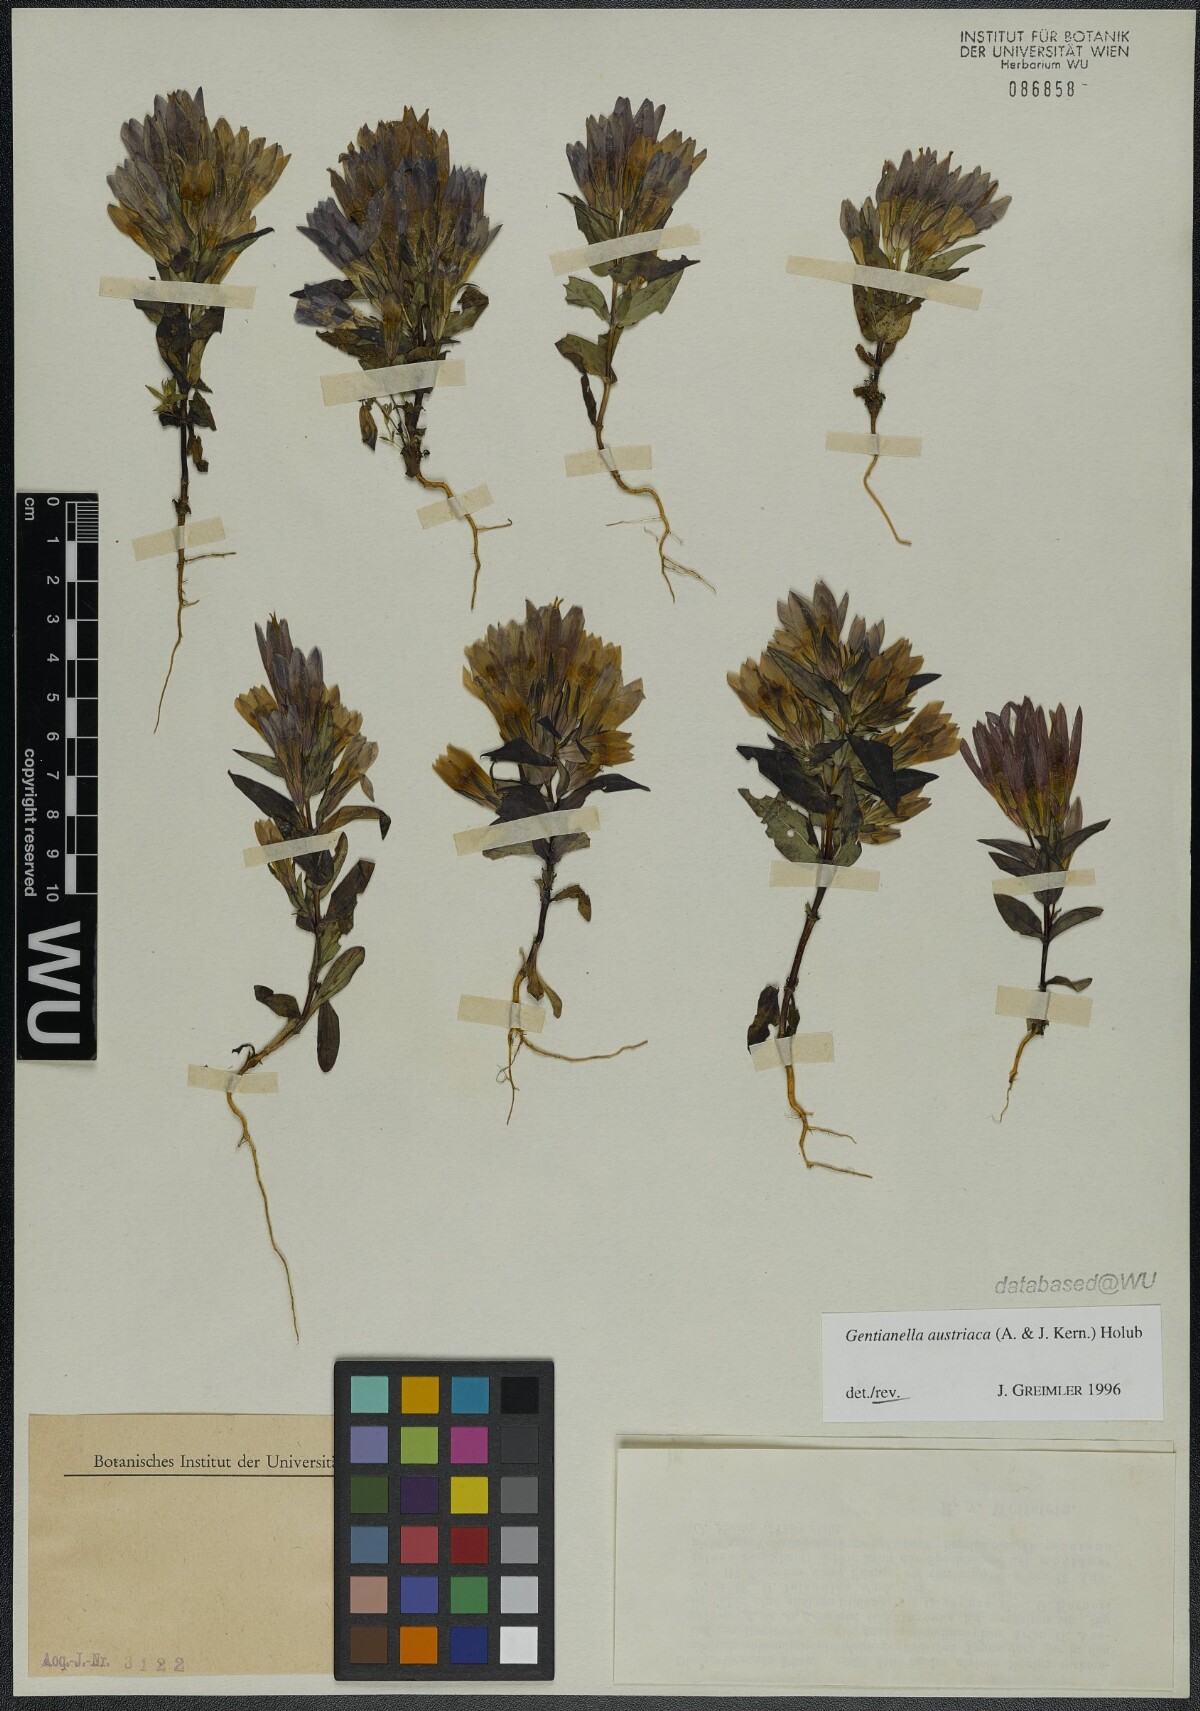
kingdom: Plantae
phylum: Tracheophyta
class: Magnoliopsida
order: Gentianales
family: Gentianaceae
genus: Gentianella
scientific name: Gentianella austriaca
